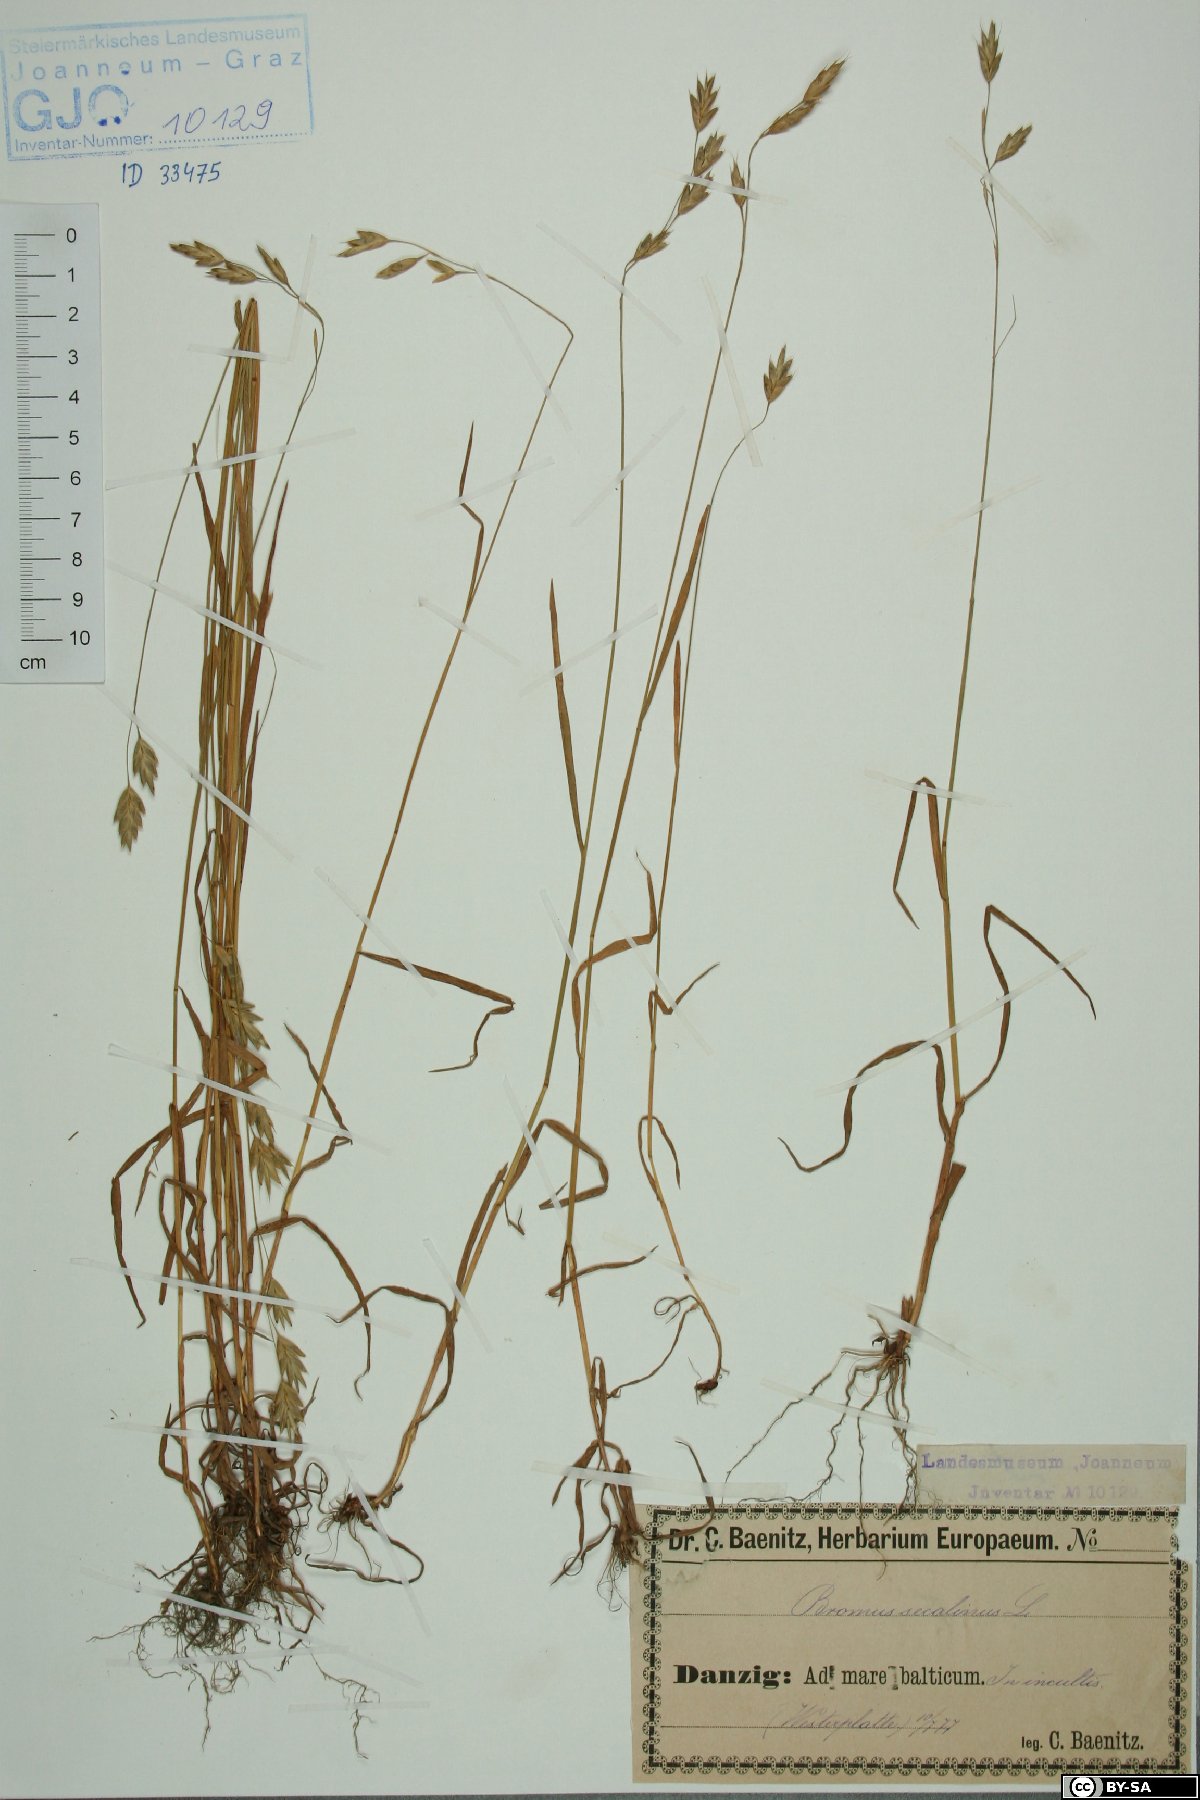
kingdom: Plantae
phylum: Tracheophyta
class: Liliopsida
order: Poales
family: Poaceae
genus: Bromus
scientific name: Bromus secalinus
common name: Rye brome
